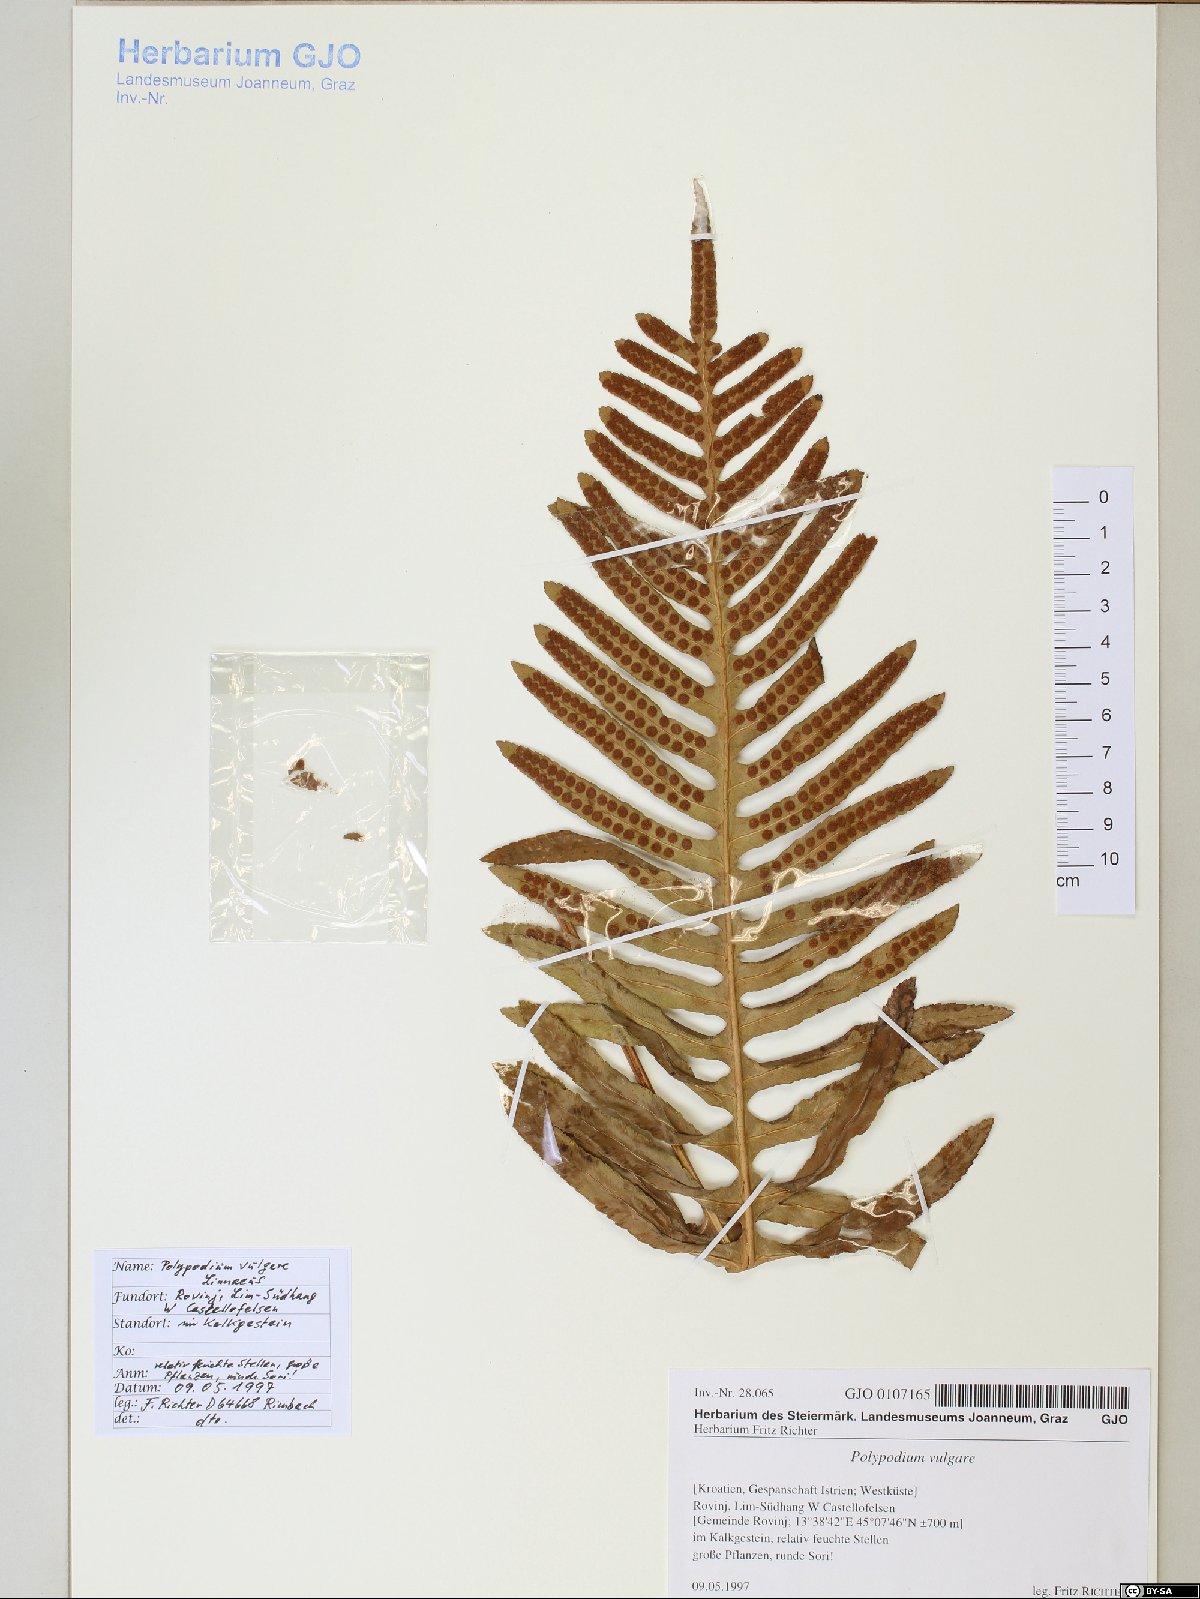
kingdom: Plantae
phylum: Tracheophyta
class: Polypodiopsida
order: Polypodiales
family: Polypodiaceae
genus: Polypodium
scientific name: Polypodium vulgare
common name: Common polypody
